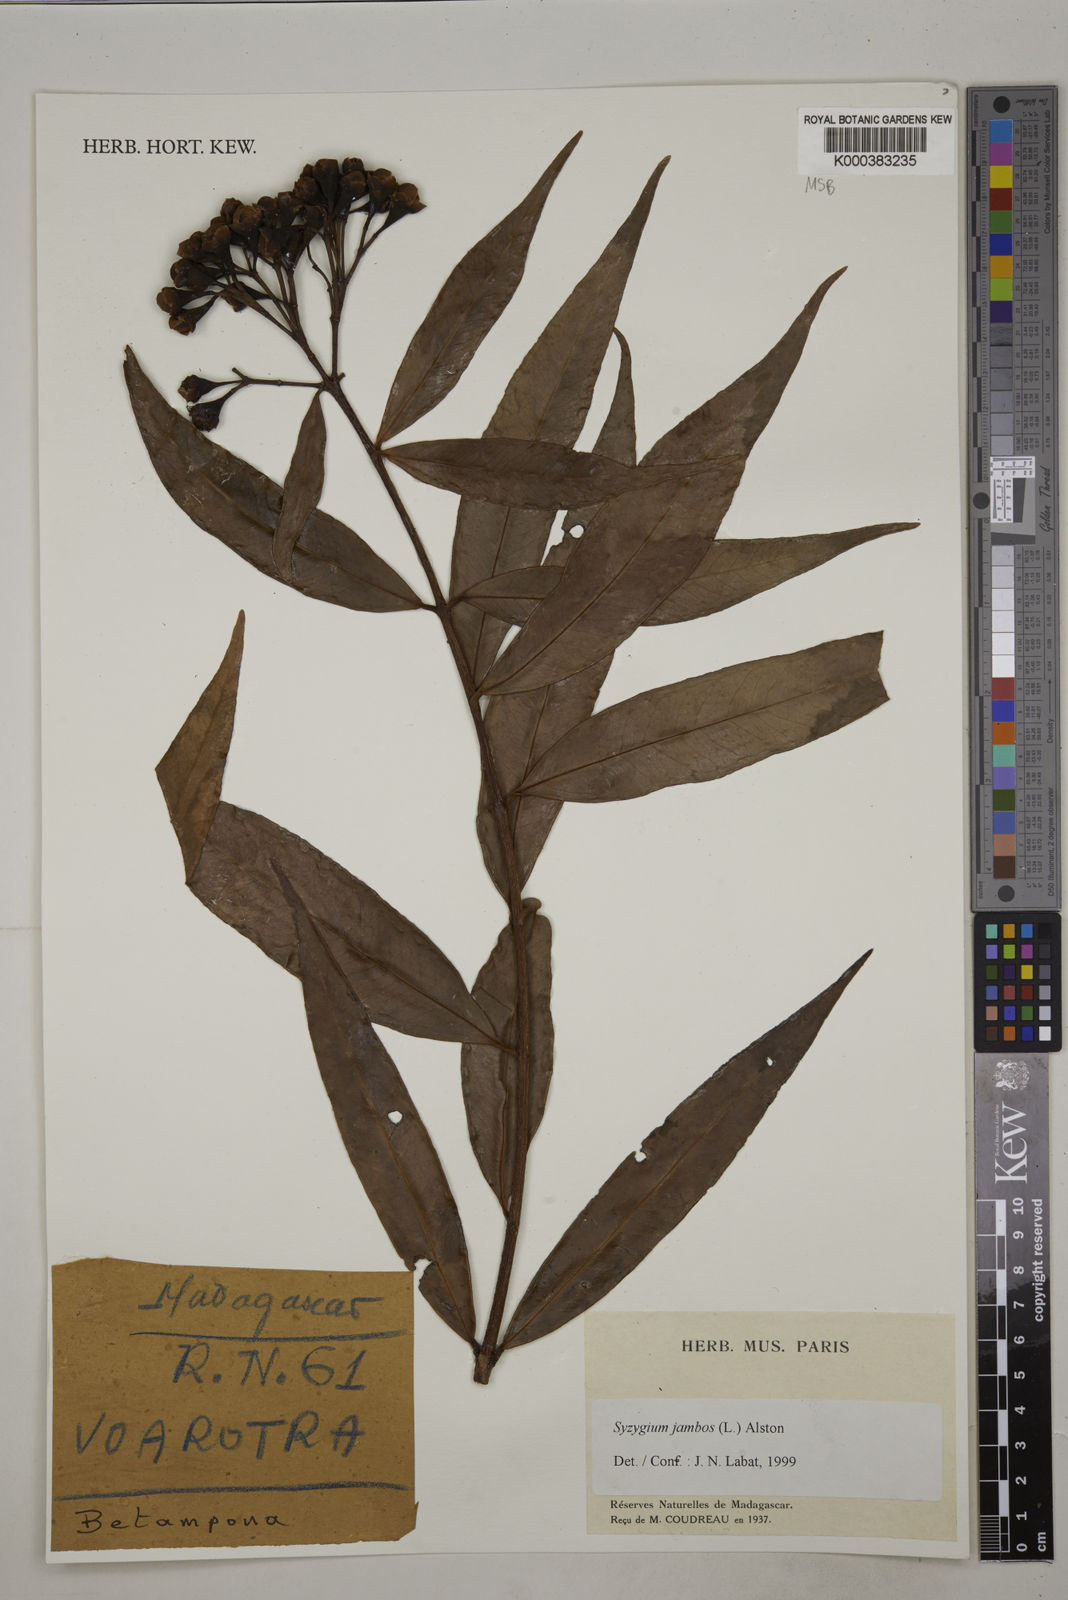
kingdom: Plantae
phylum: Tracheophyta
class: Magnoliopsida
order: Myrtales
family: Myrtaceae
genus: Syzygium
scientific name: Syzygium jambos
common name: Malabar plum
